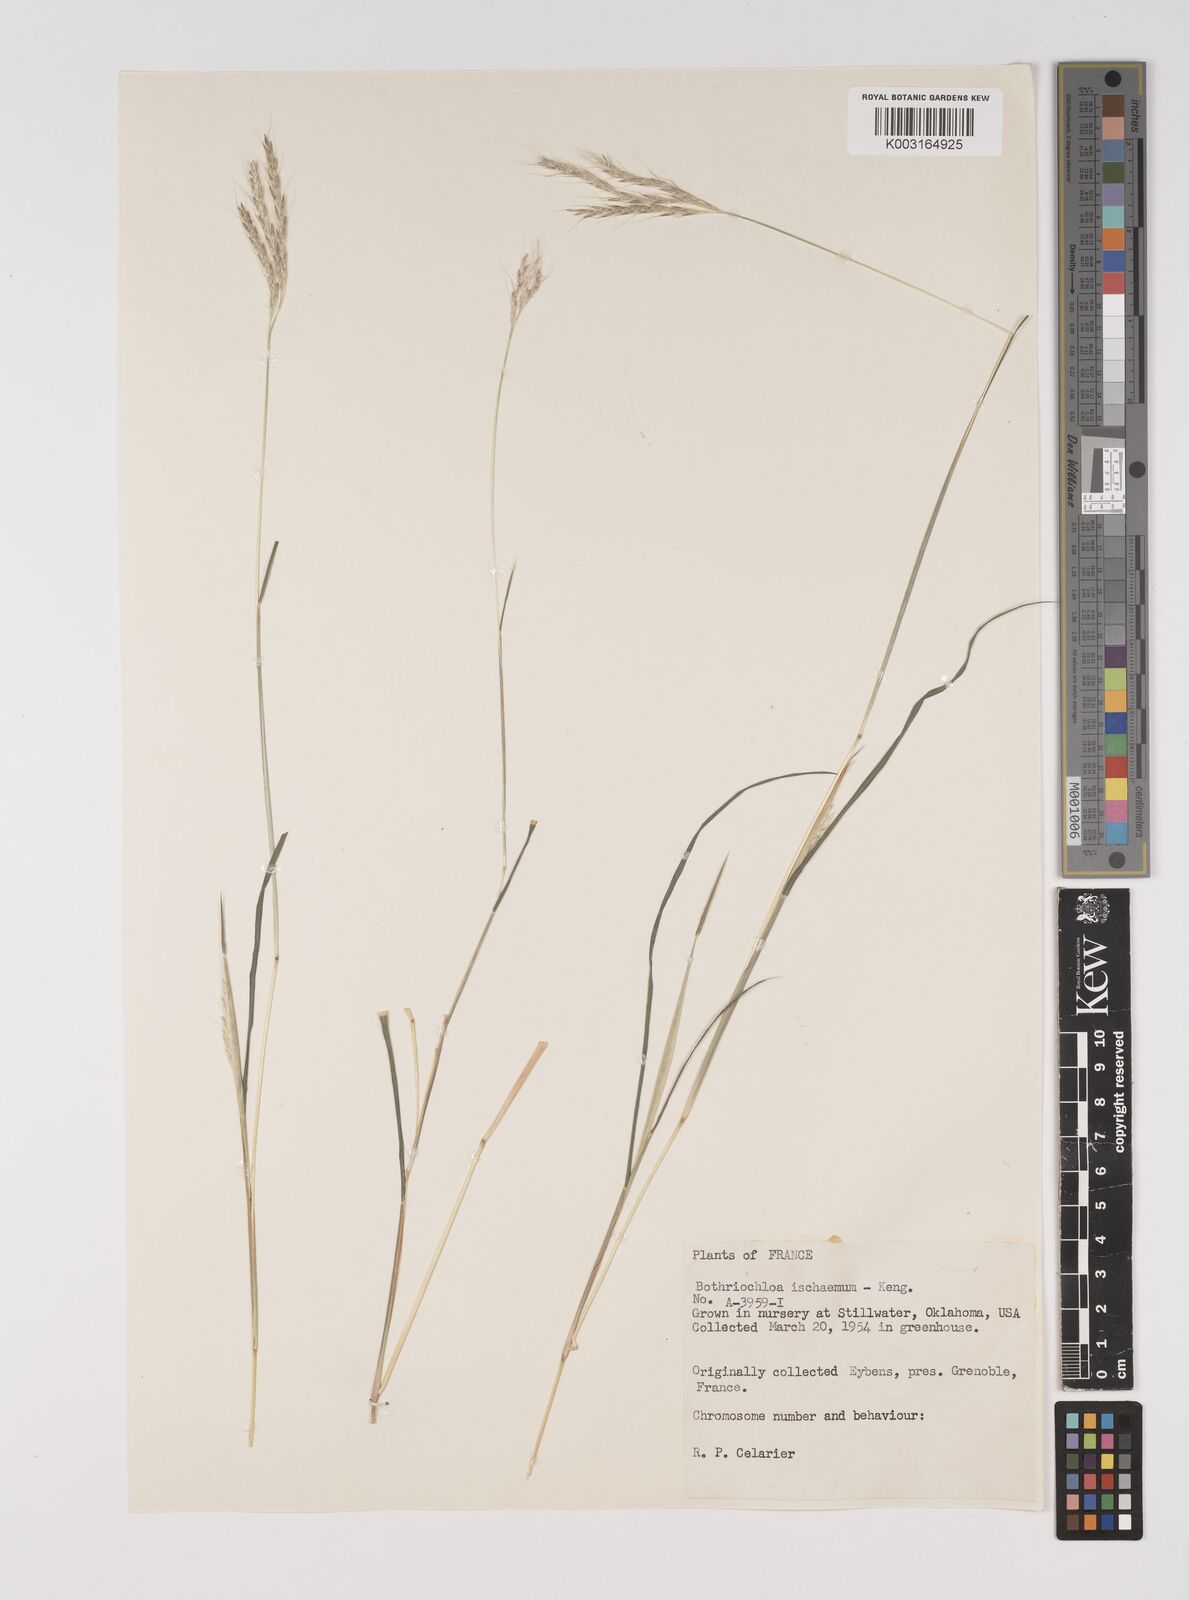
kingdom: Plantae
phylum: Tracheophyta
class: Liliopsida
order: Poales
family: Poaceae
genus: Bothriochloa
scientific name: Bothriochloa ischaemum
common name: Yellow bluestem
